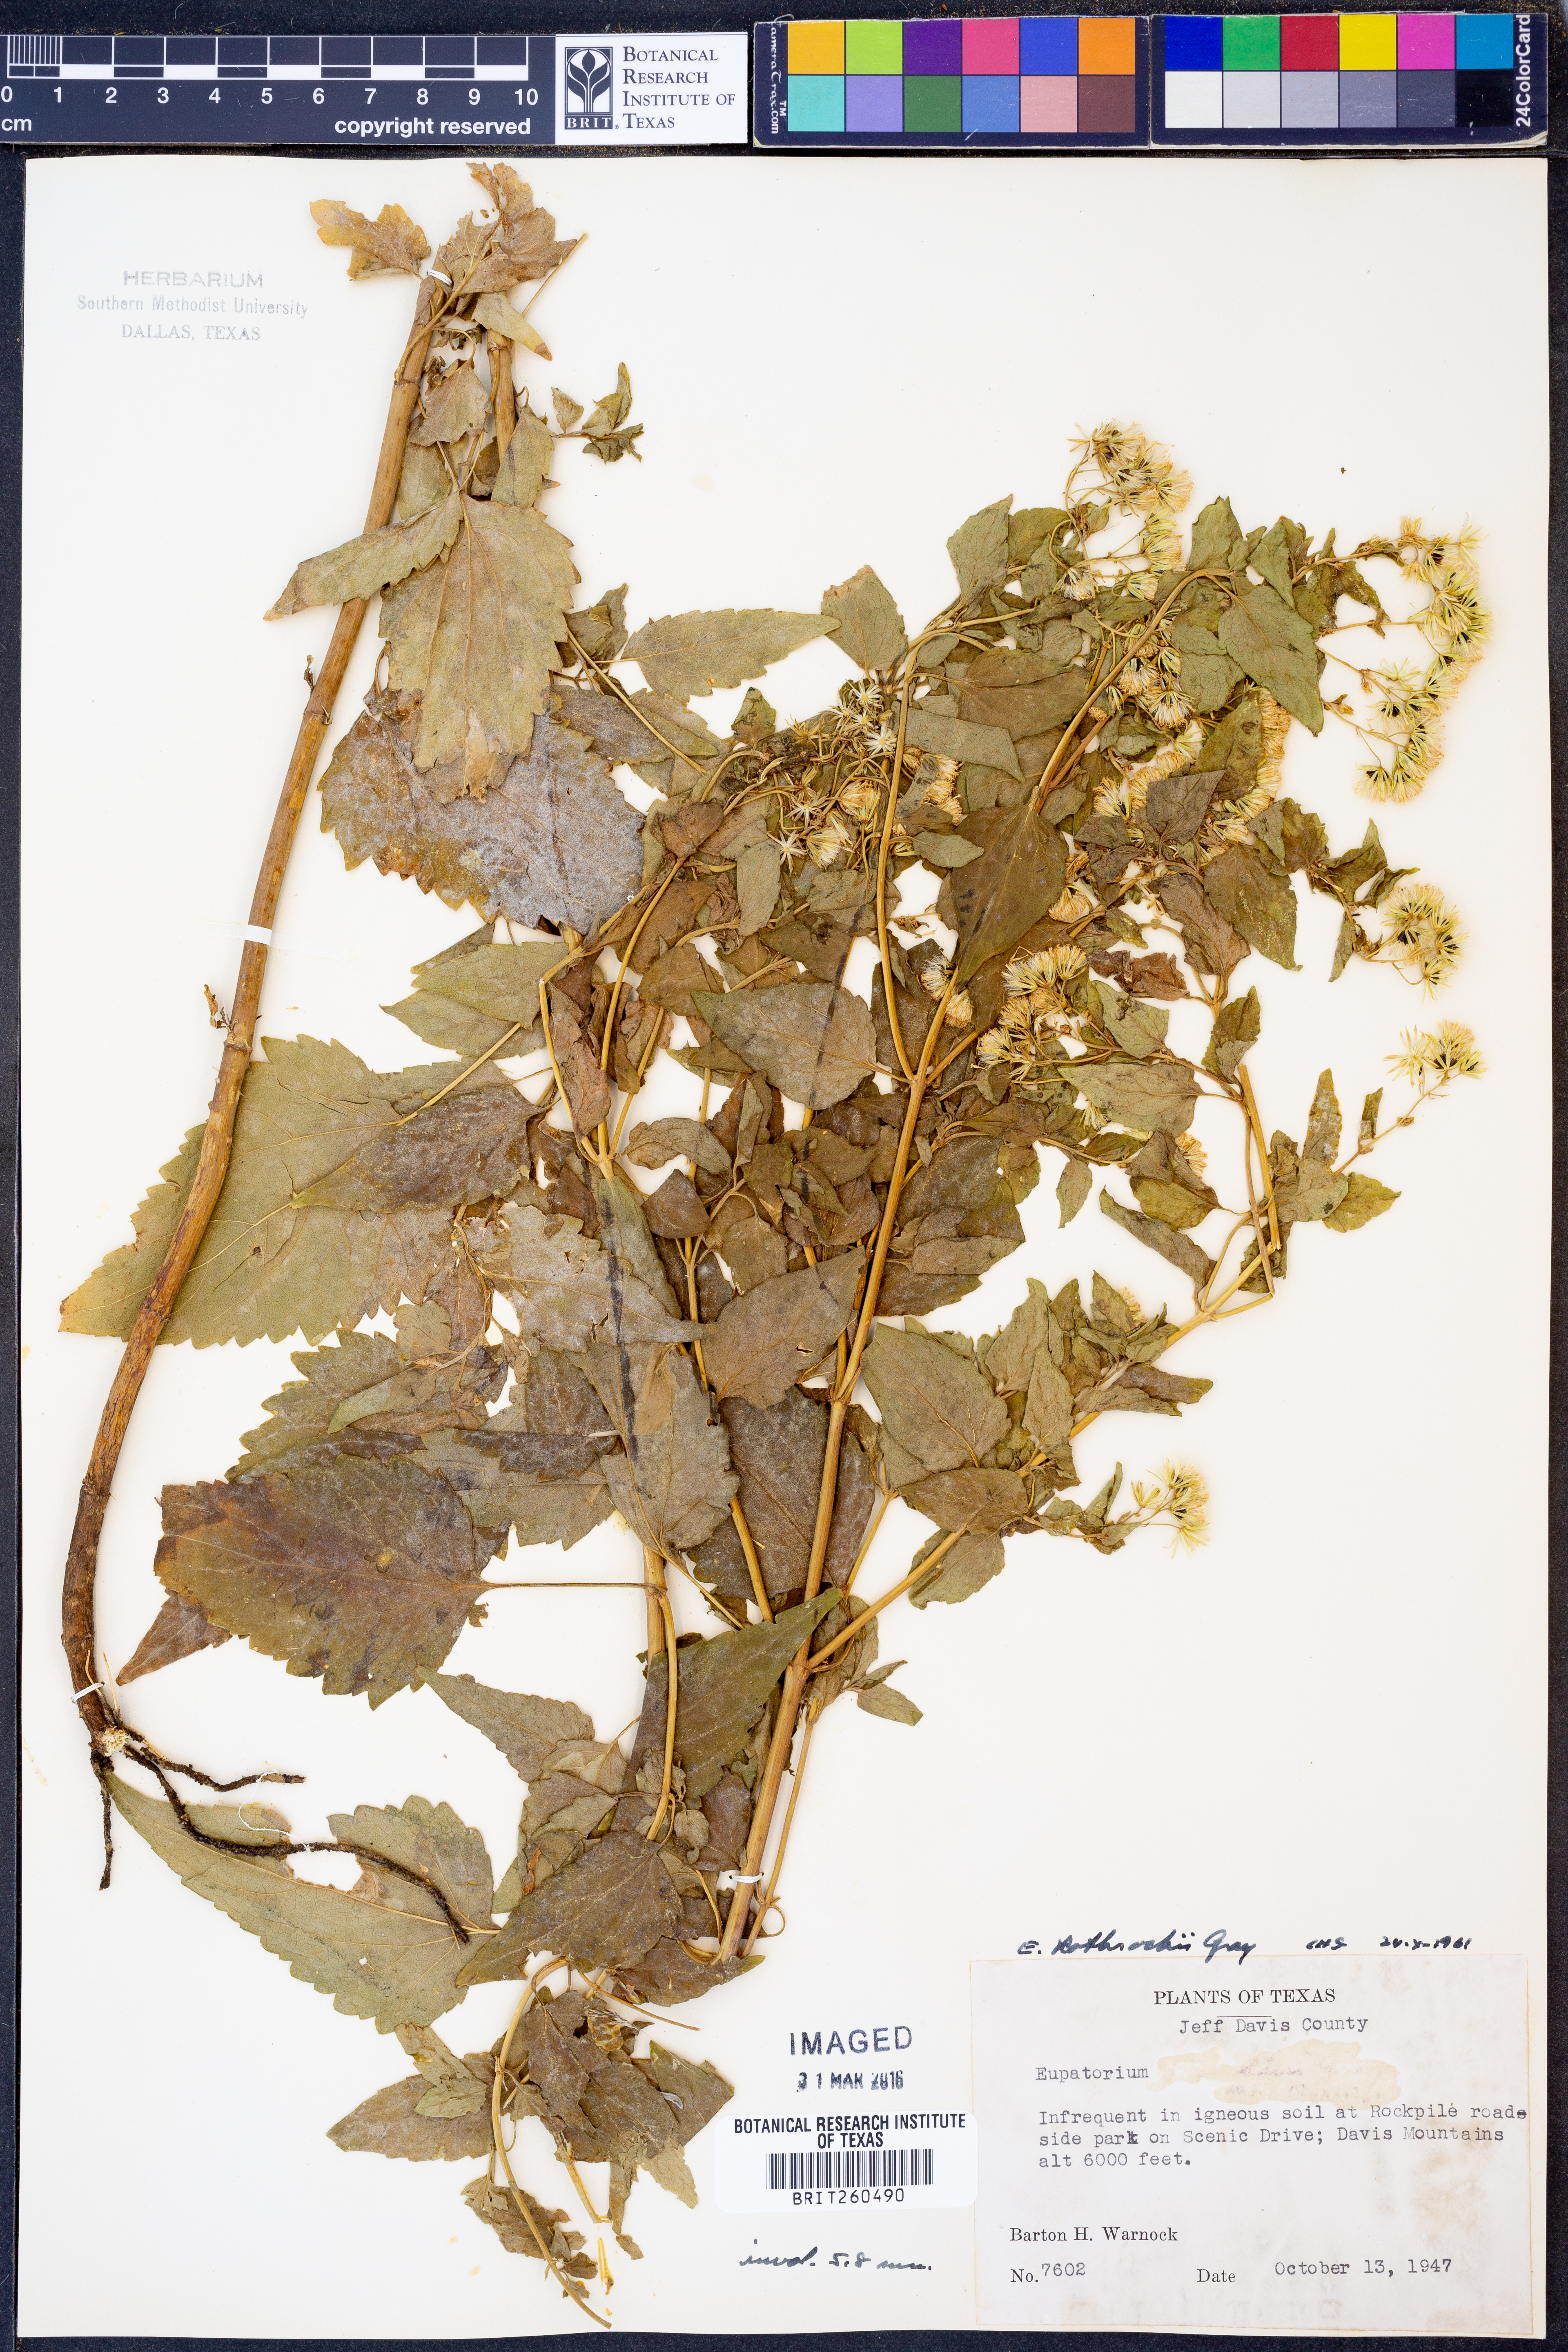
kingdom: Plantae
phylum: Tracheophyta
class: Magnoliopsida
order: Asterales
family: Asteraceae
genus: Ageratina
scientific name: Ageratina rothrockii
